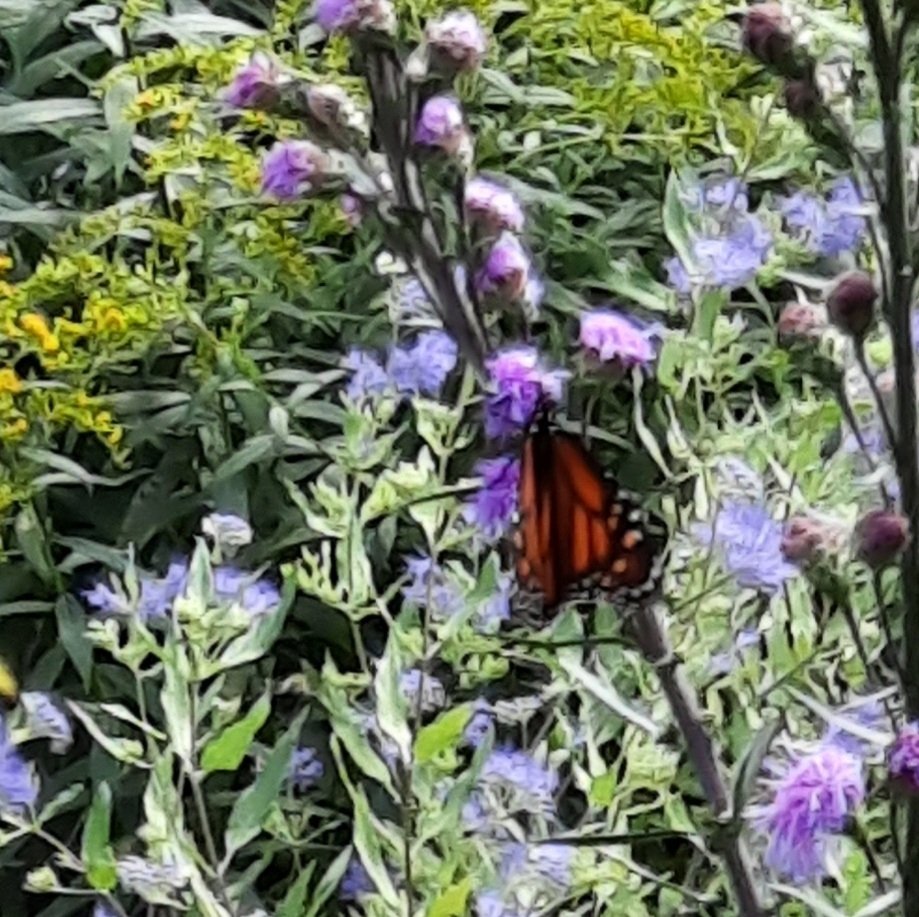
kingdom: Animalia
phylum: Arthropoda
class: Insecta
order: Lepidoptera
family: Nymphalidae
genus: Danaus
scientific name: Danaus plexippus
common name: Monarch
